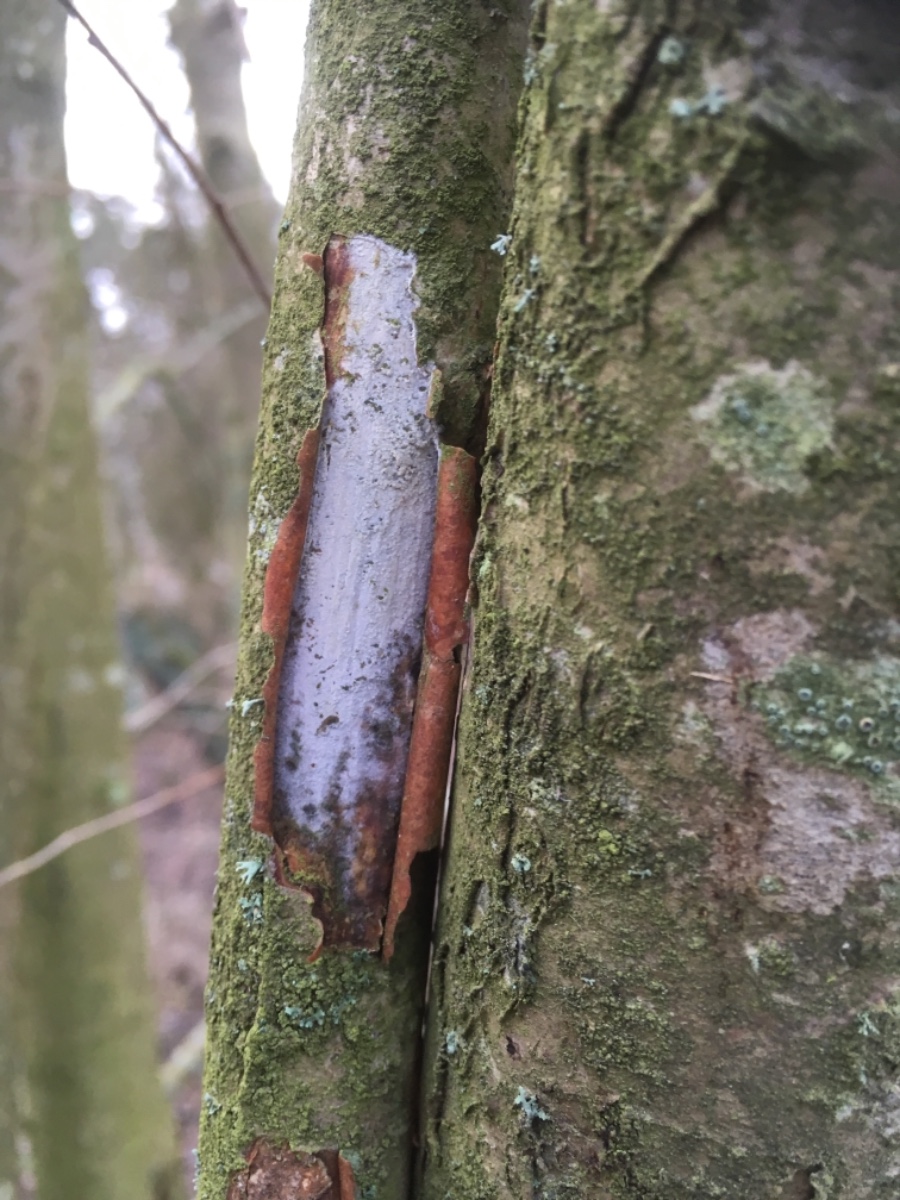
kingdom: Fungi
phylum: Basidiomycota
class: Agaricomycetes
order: Corticiales
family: Corticiaceae
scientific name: Corticiaceae
